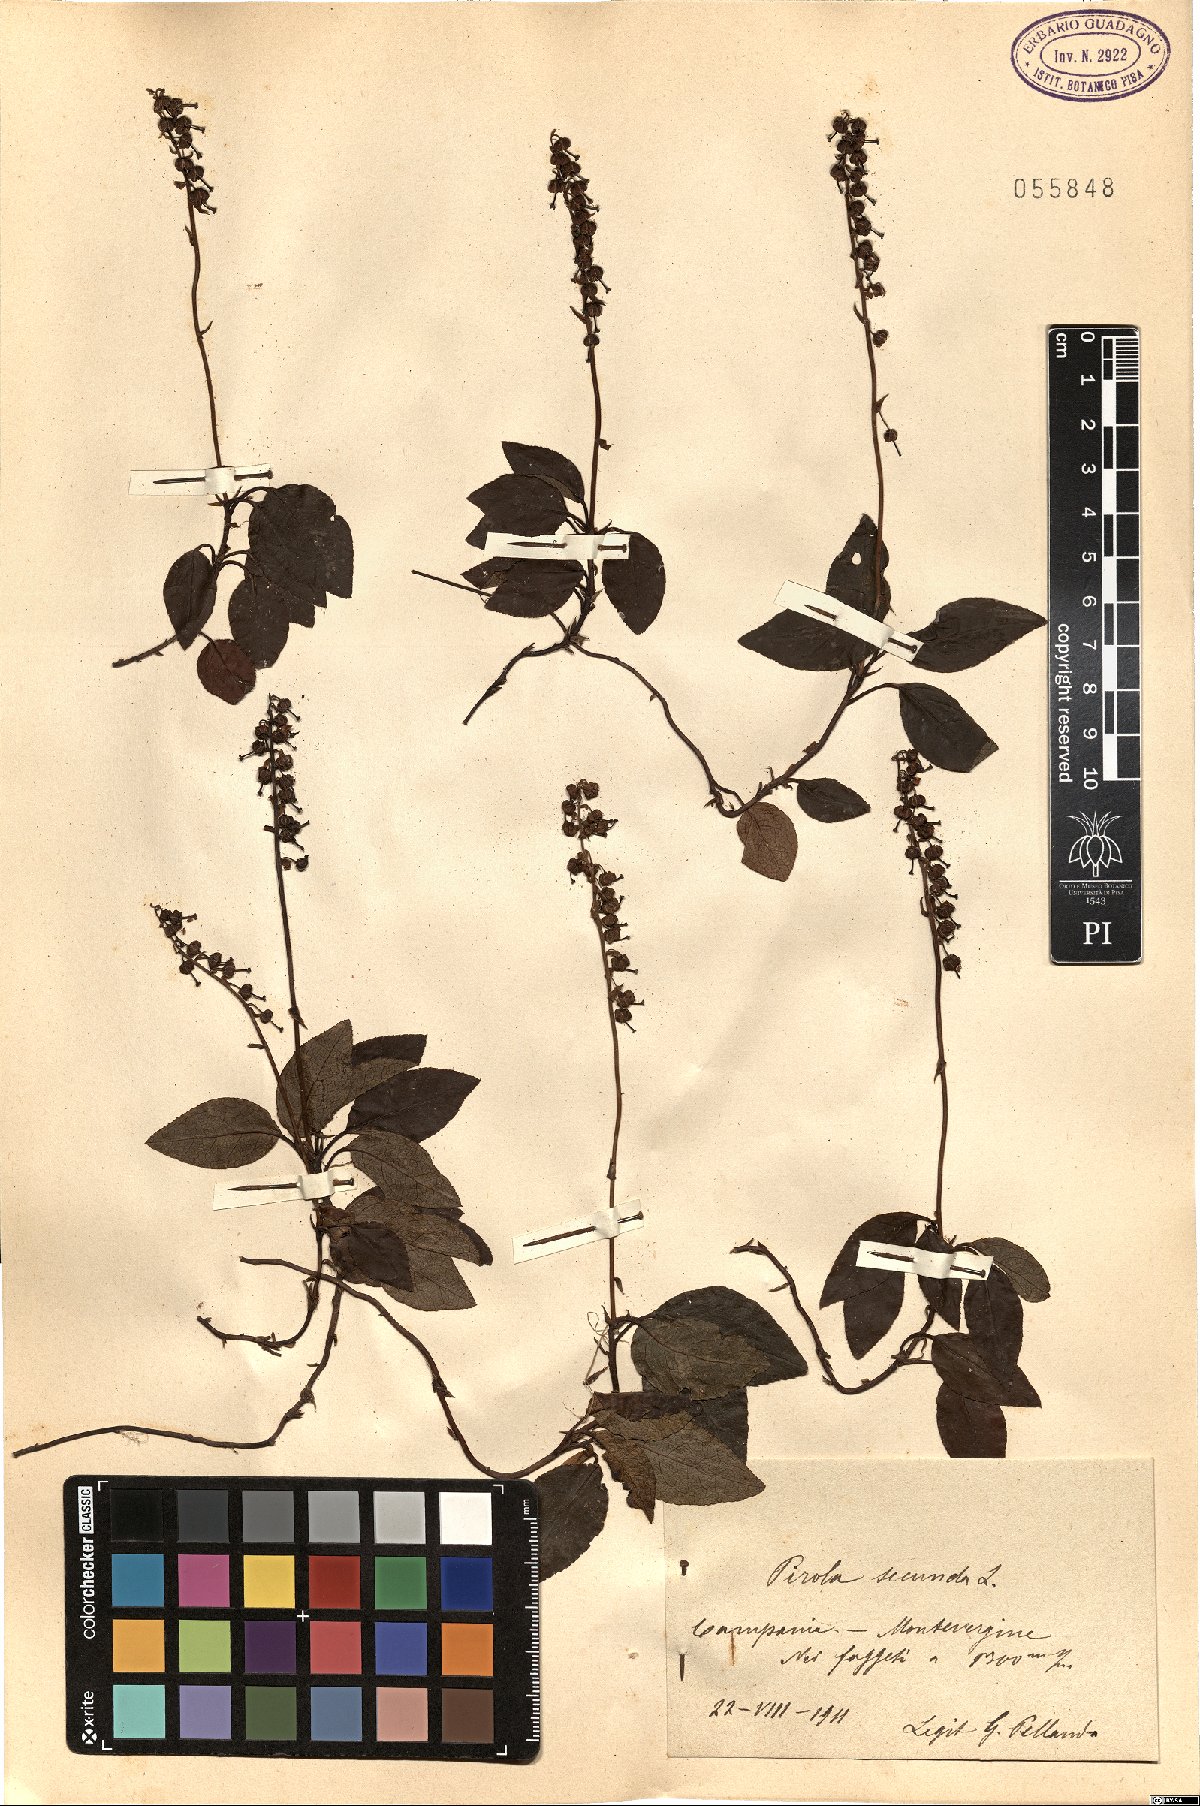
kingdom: Plantae
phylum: Tracheophyta
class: Magnoliopsida
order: Ericales
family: Ericaceae
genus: Orthilia
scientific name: Orthilia secunda
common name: One-sided orthilia
